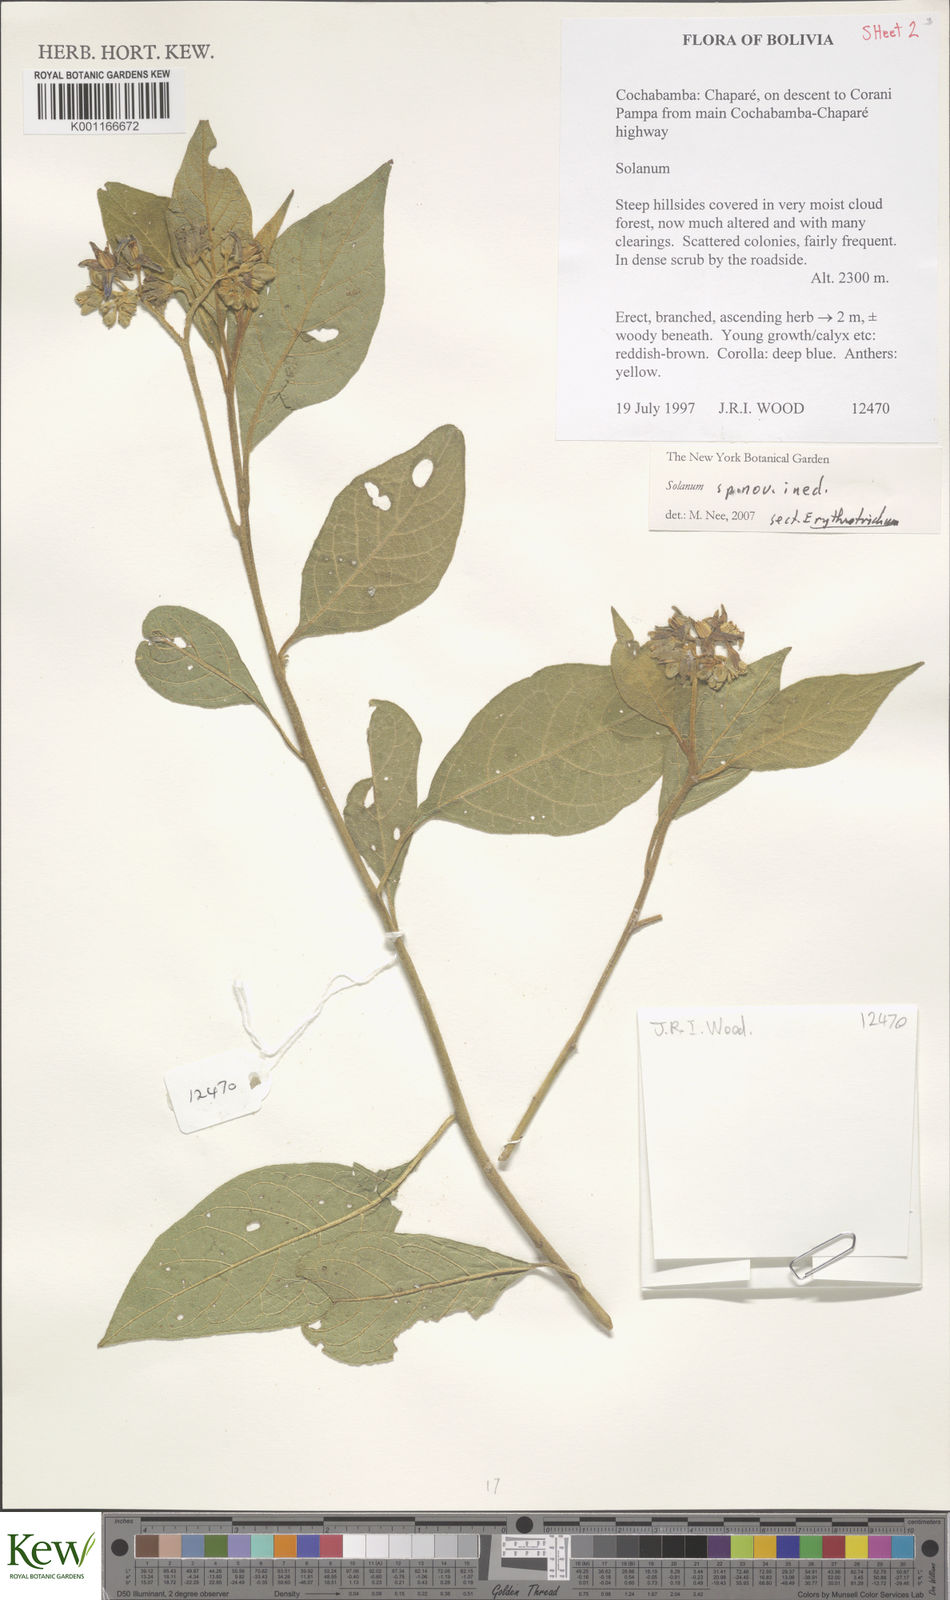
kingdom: Plantae
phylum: Tracheophyta
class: Magnoliopsida
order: Solanales
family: Solanaceae
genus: Solanum
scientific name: Solanum
